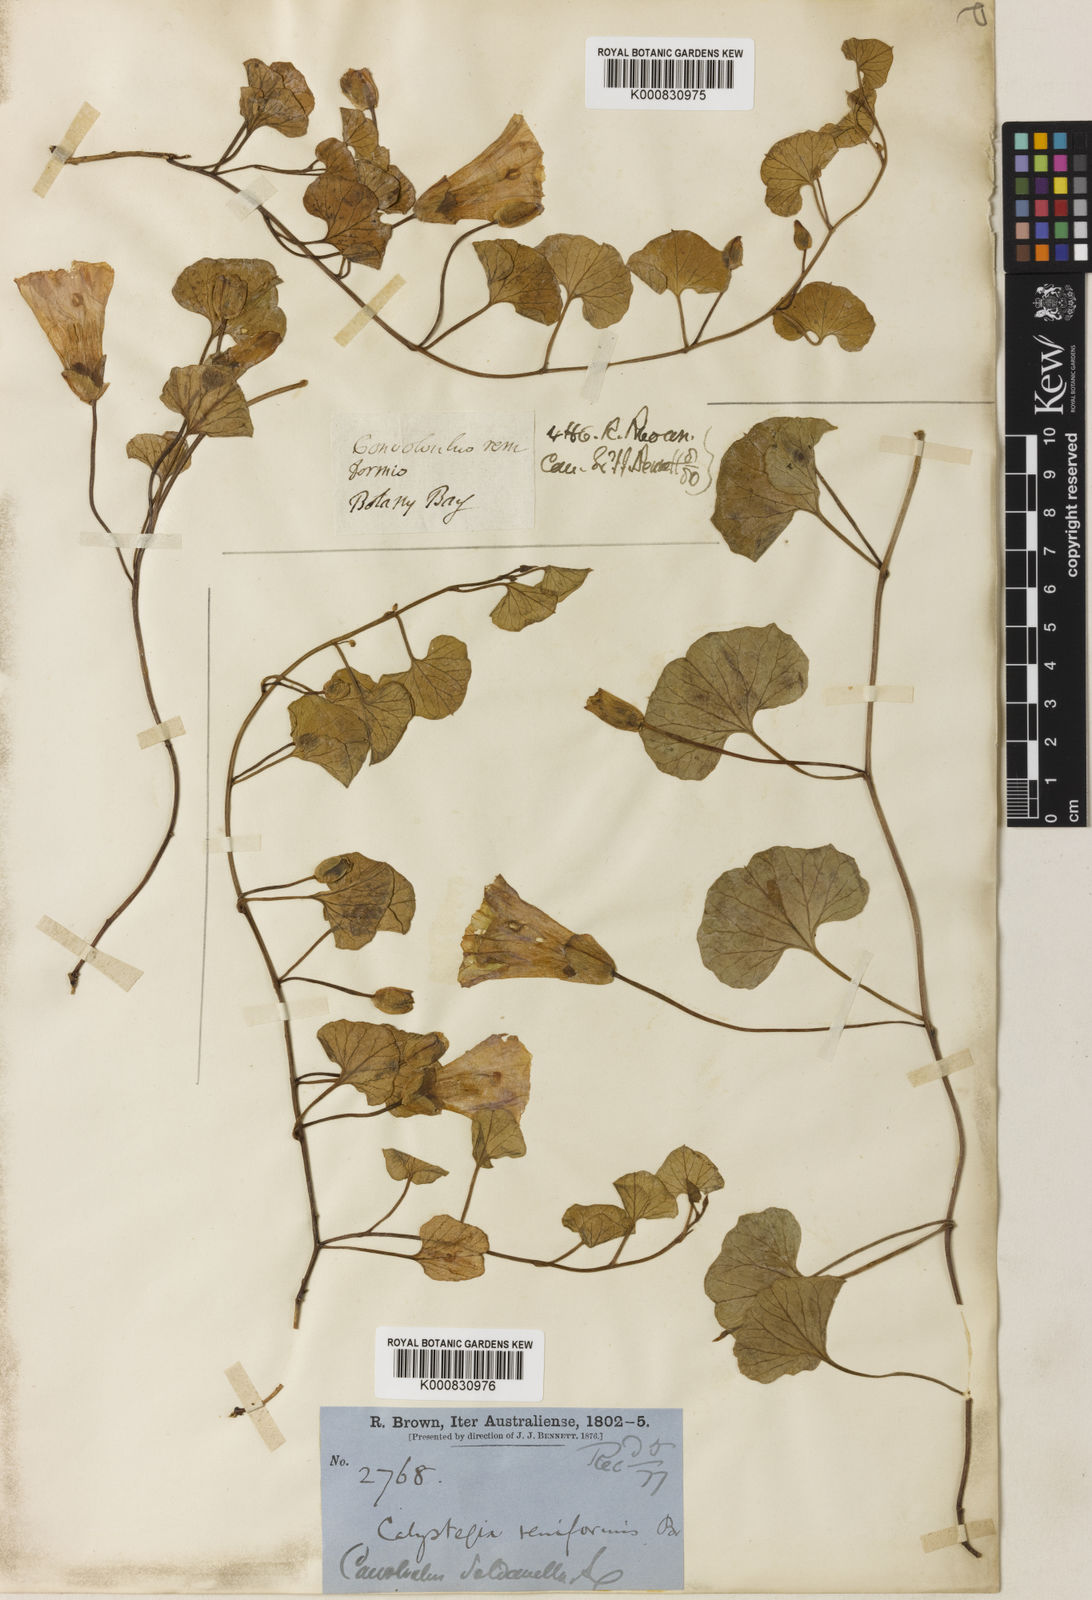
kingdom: Plantae
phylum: Tracheophyta
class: Magnoliopsida
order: Solanales
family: Convolvulaceae
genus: Calystegia
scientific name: Calystegia soldanella
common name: Sea bindweed
